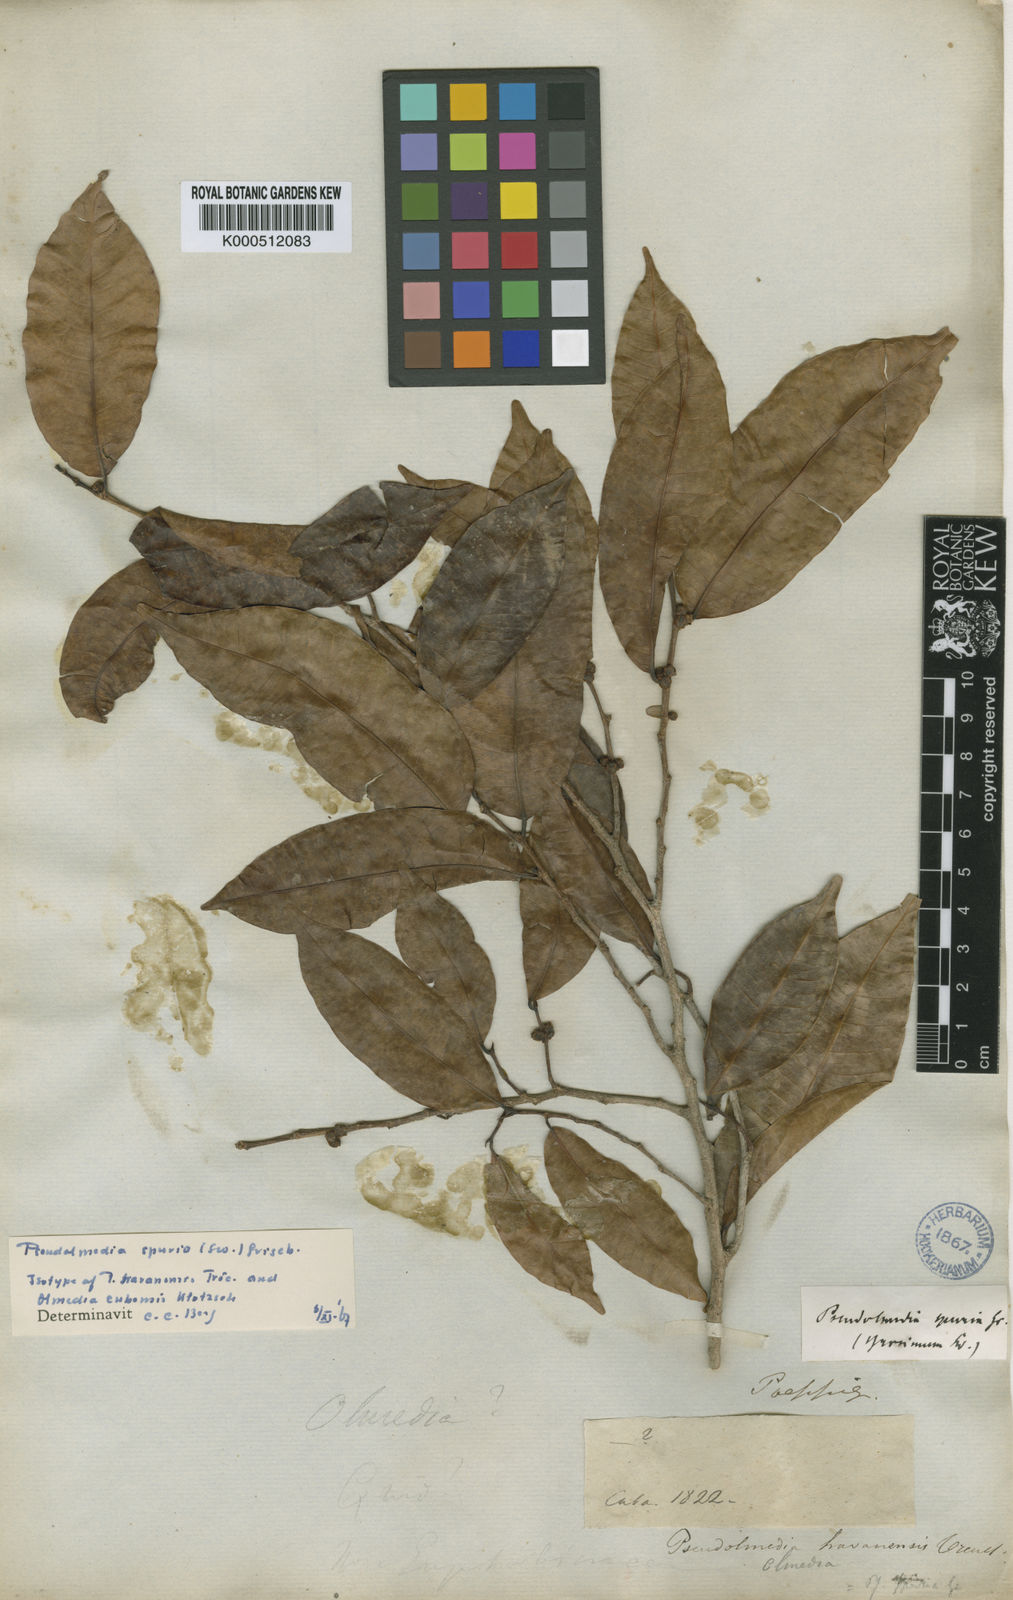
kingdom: Plantae
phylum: Tracheophyta
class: Magnoliopsida
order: Rosales
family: Moraceae
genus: Pseudolmedia
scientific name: Pseudolmedia spuria
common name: Bastard-cherry
